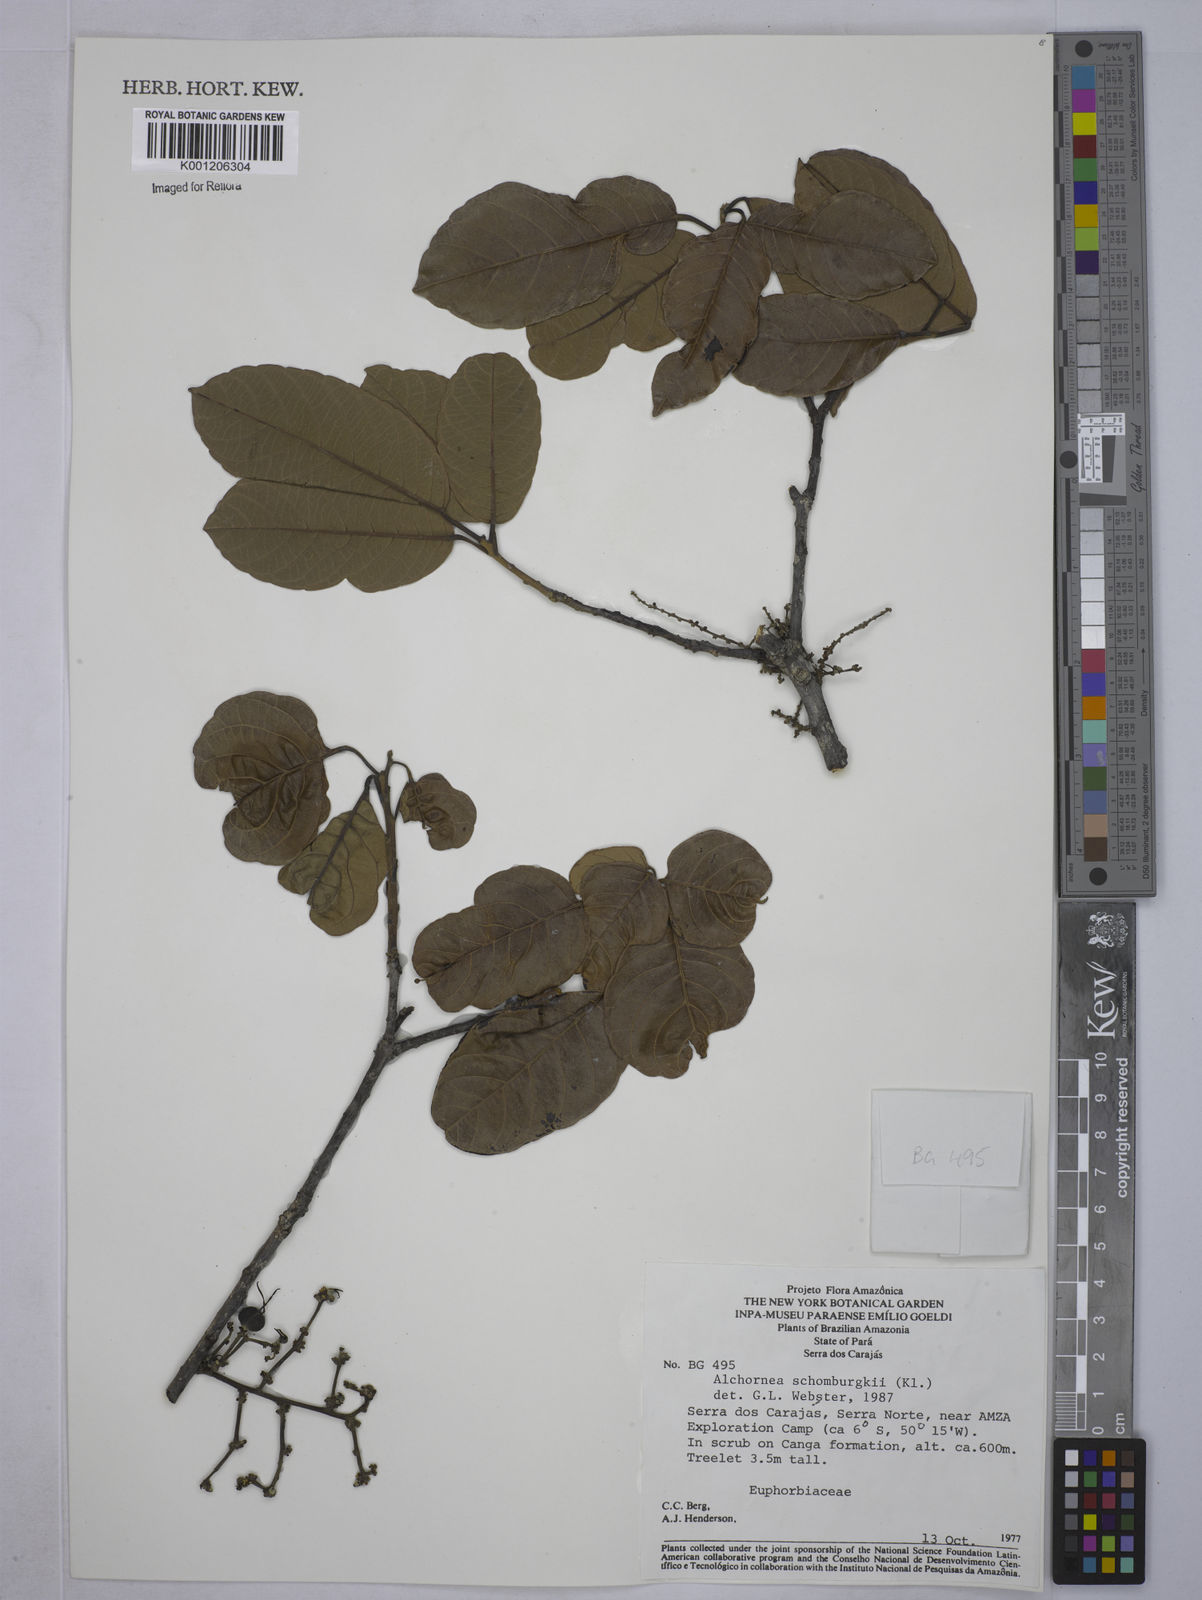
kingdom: Plantae
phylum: Tracheophyta
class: Magnoliopsida
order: Malpighiales
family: Euphorbiaceae
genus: Alchornea
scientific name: Alchornea discolor
